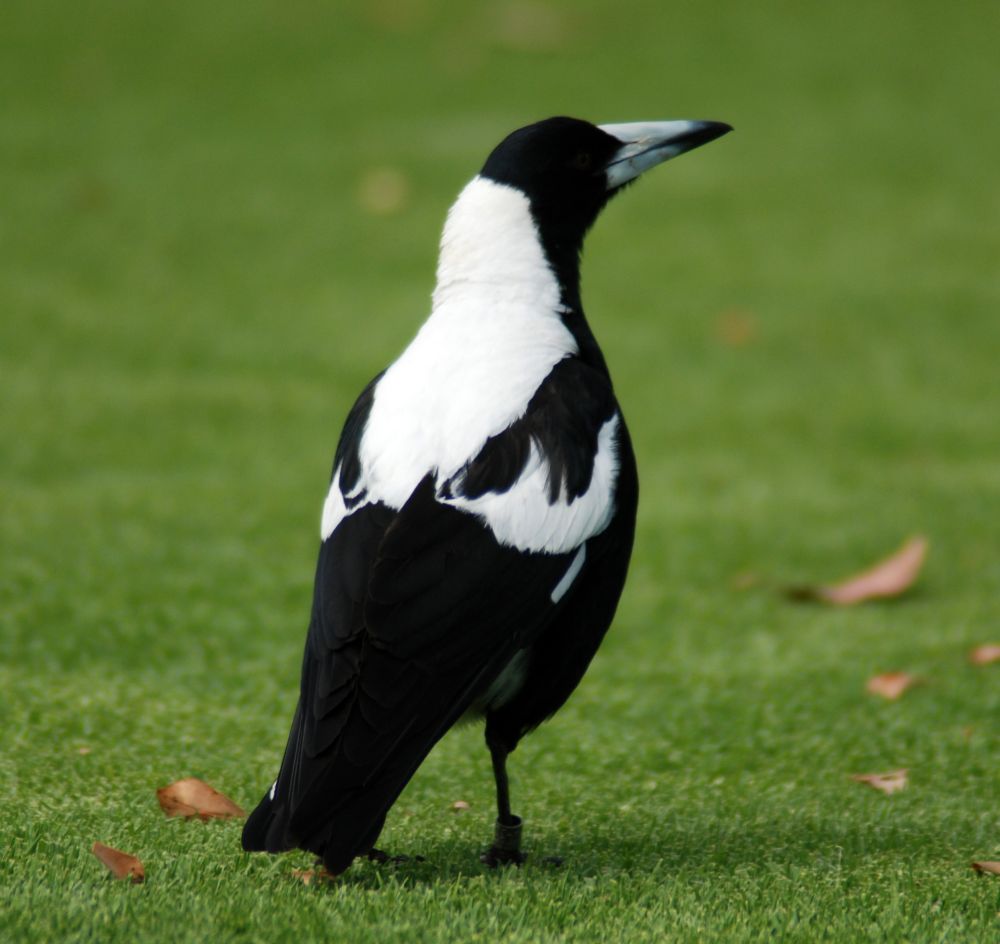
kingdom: Animalia
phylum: Chordata
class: Aves
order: Passeriformes
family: Cracticidae
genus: Gymnorhina
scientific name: Gymnorhina tibicen
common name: Australian magpie
